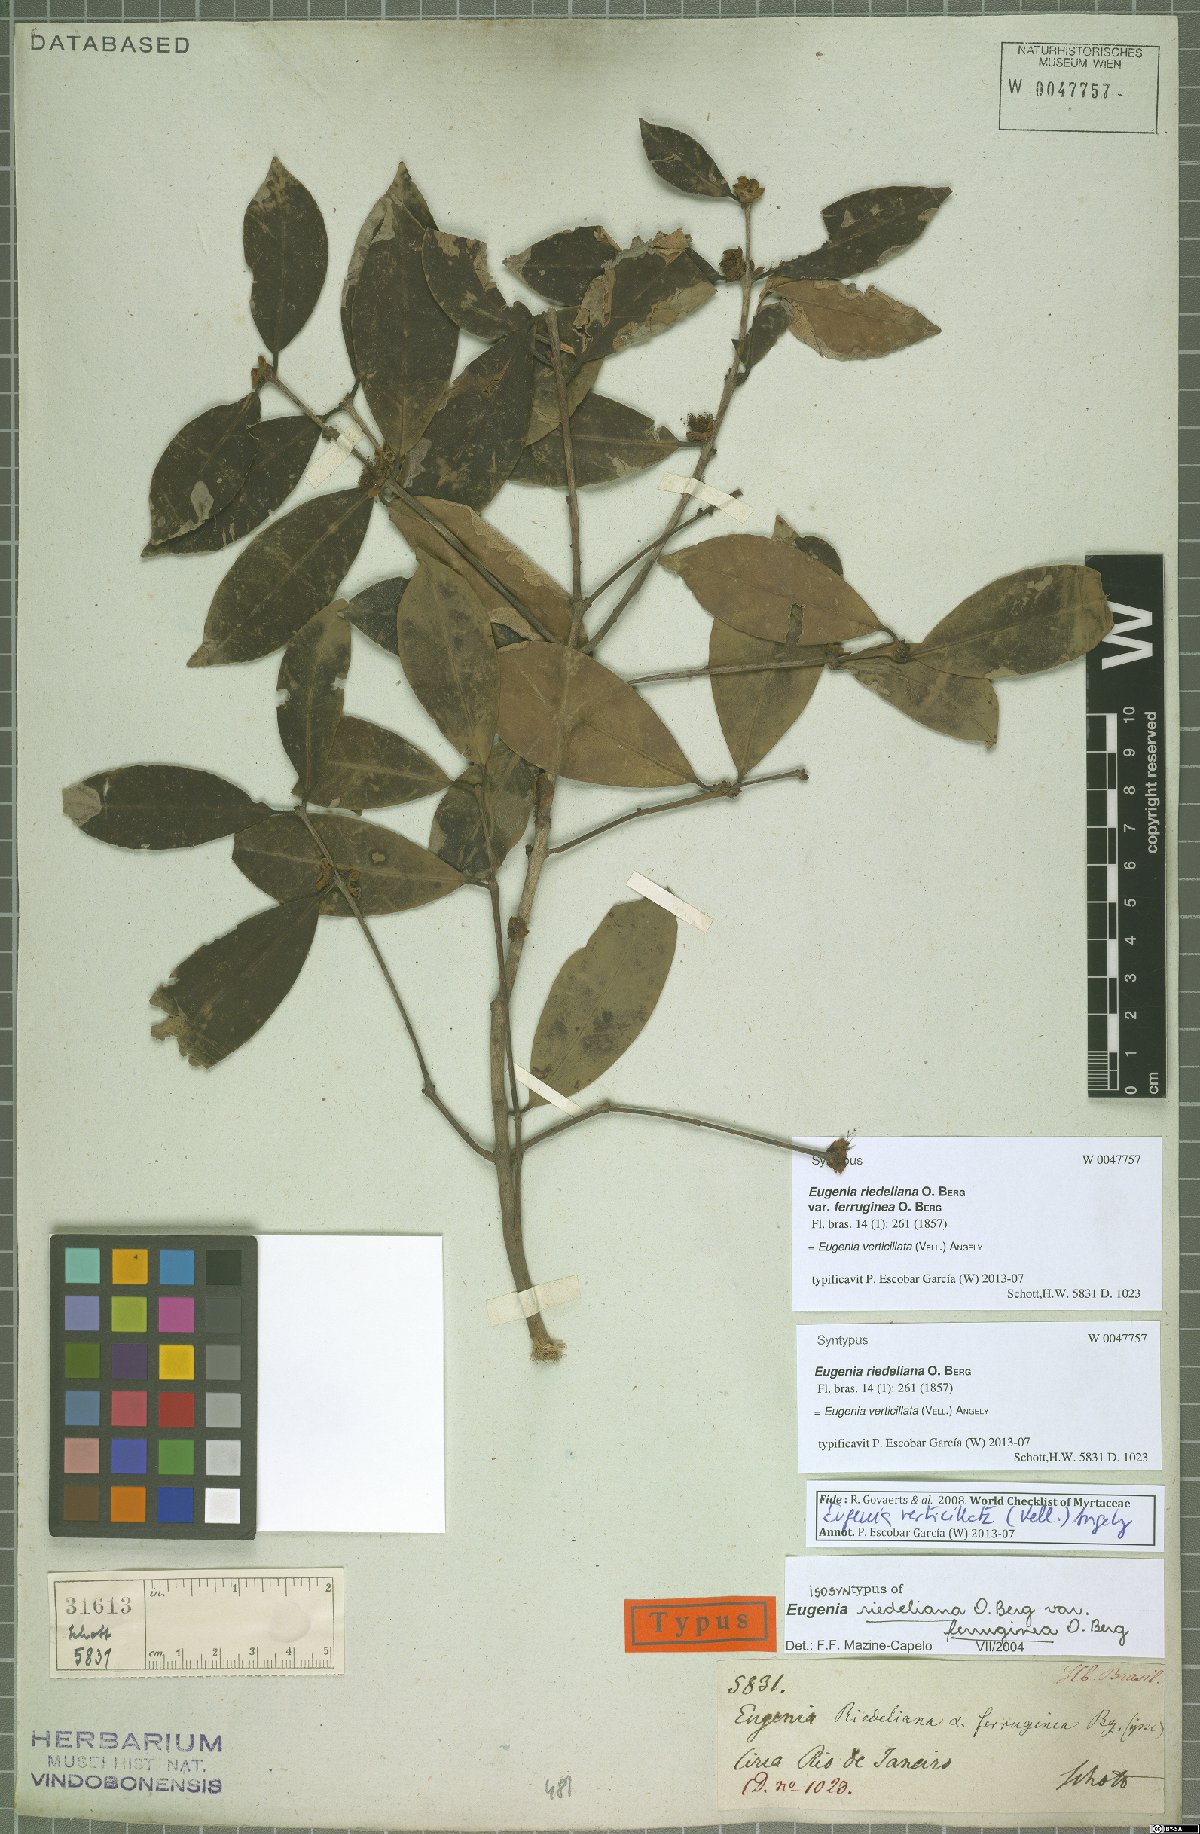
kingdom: Plantae
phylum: Tracheophyta
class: Magnoliopsida
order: Myrtales
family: Myrtaceae
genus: Eugenia
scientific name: Eugenia verticillata
